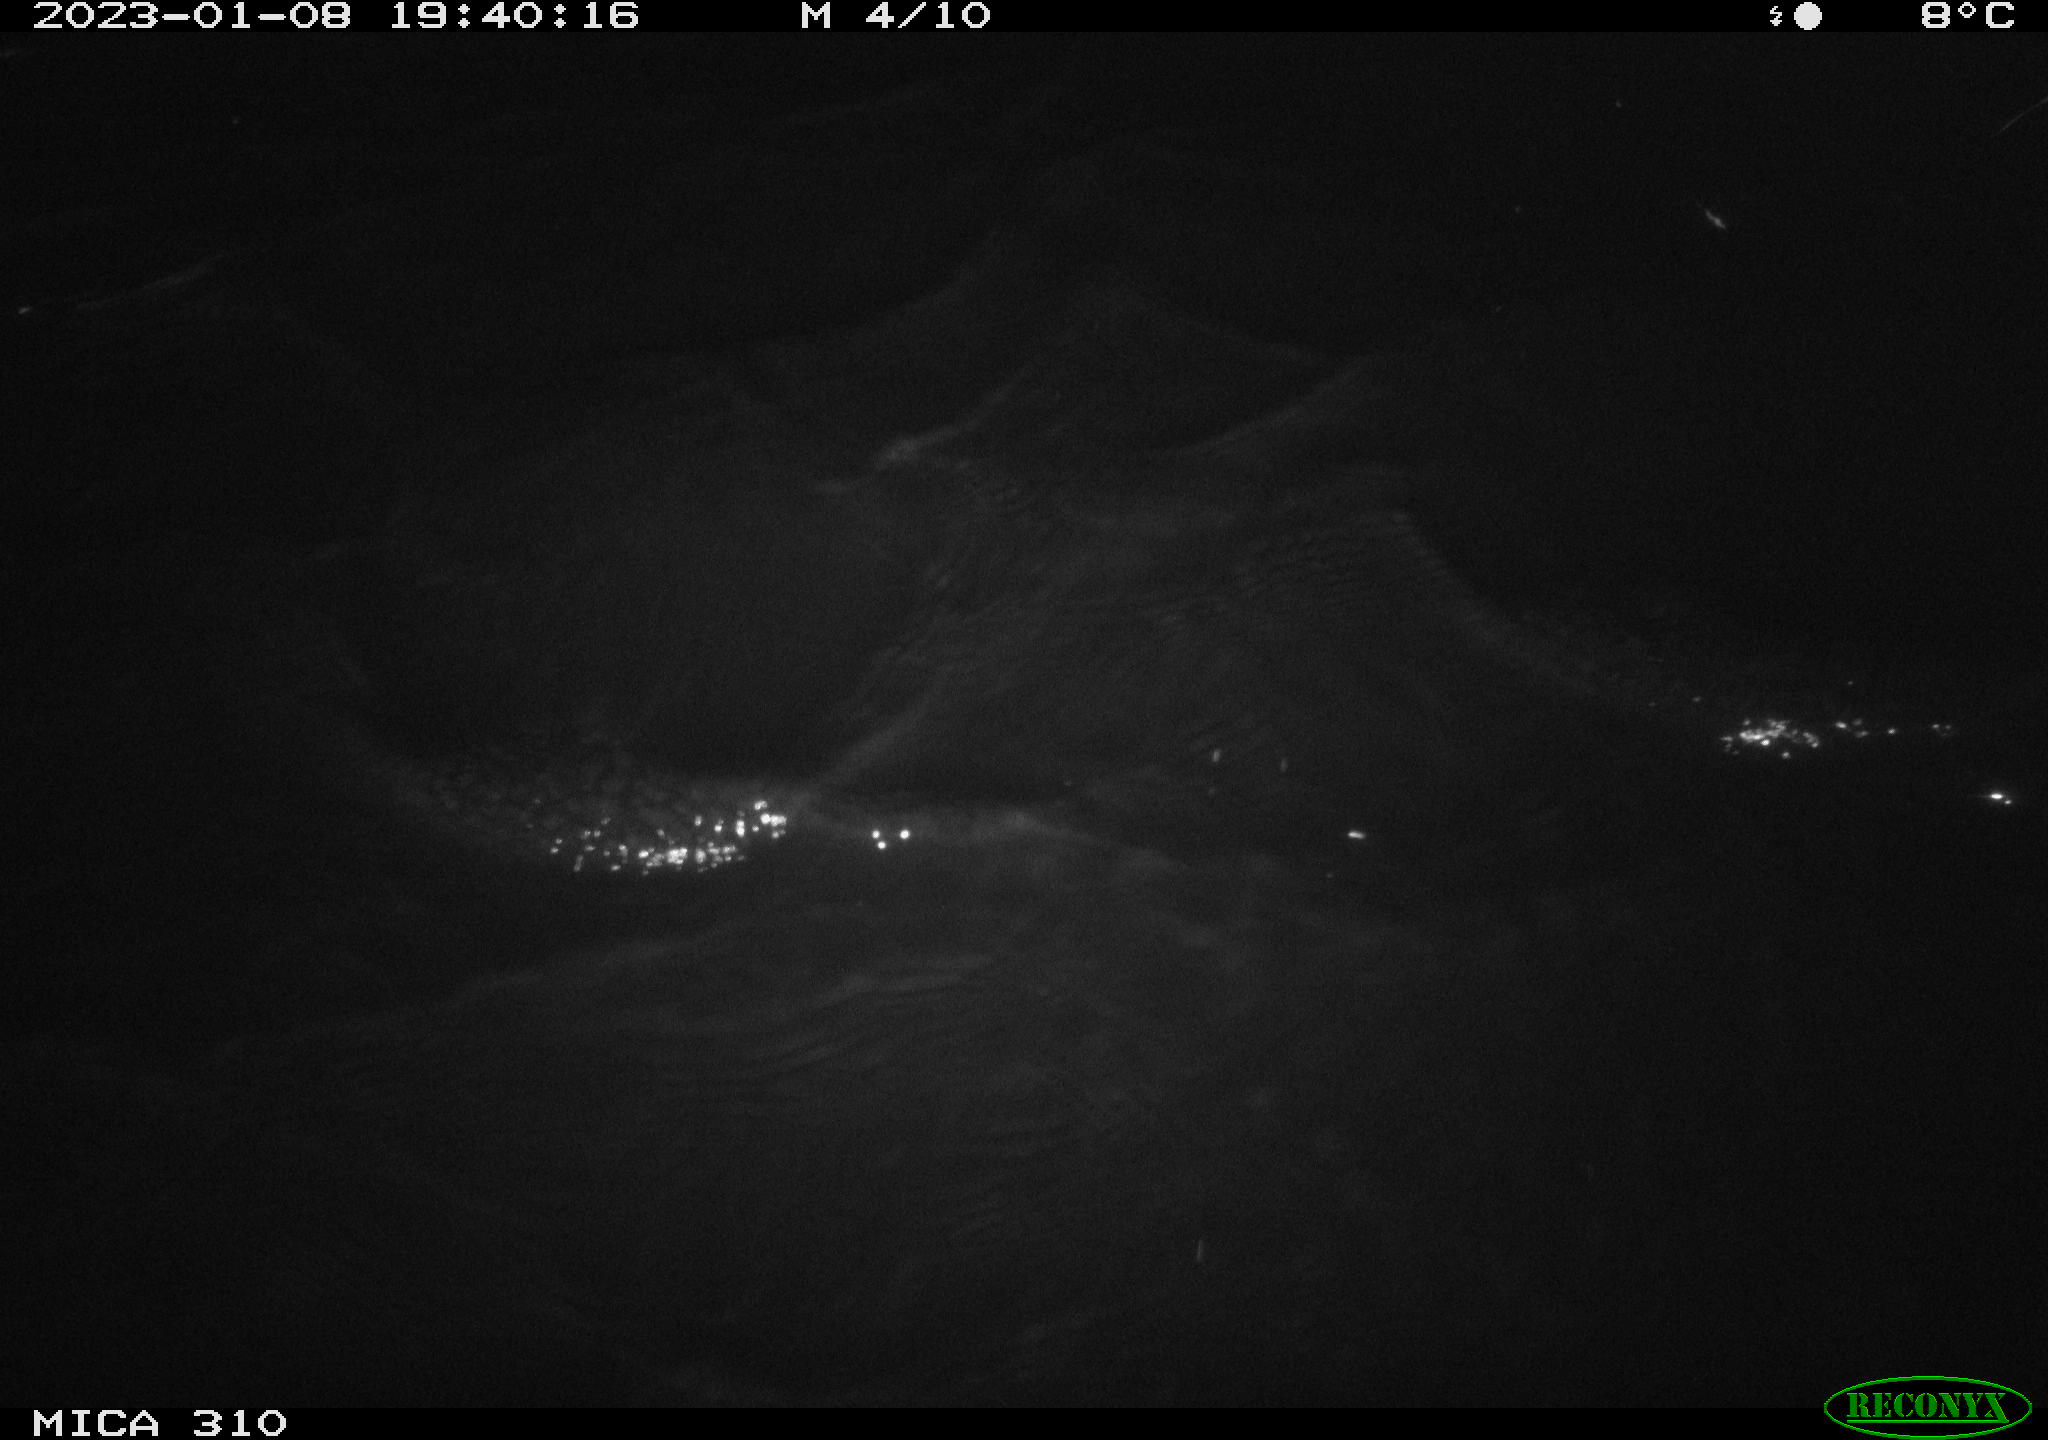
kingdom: Animalia
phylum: Chordata
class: Mammalia
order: Rodentia
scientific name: Rodentia
